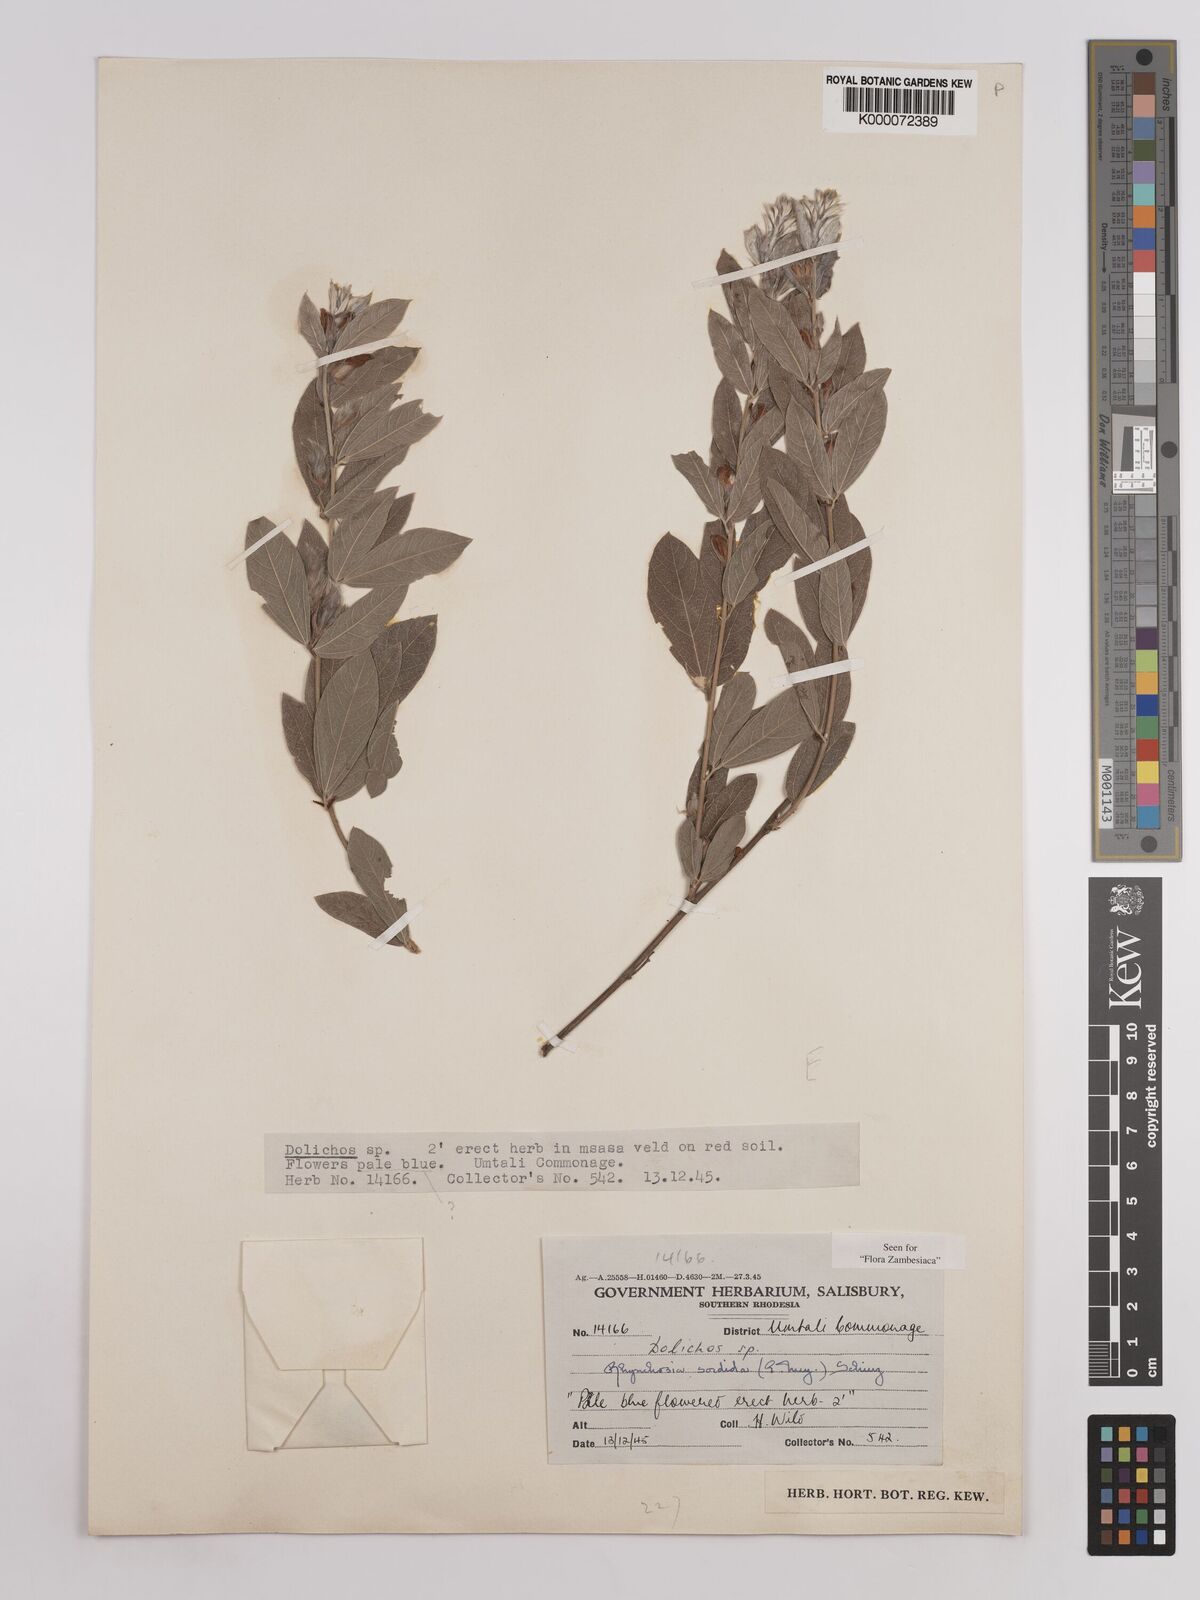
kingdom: Plantae
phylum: Tracheophyta
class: Magnoliopsida
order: Fabales
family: Fabaceae
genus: Rhynchosia
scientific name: Rhynchosia sordida
